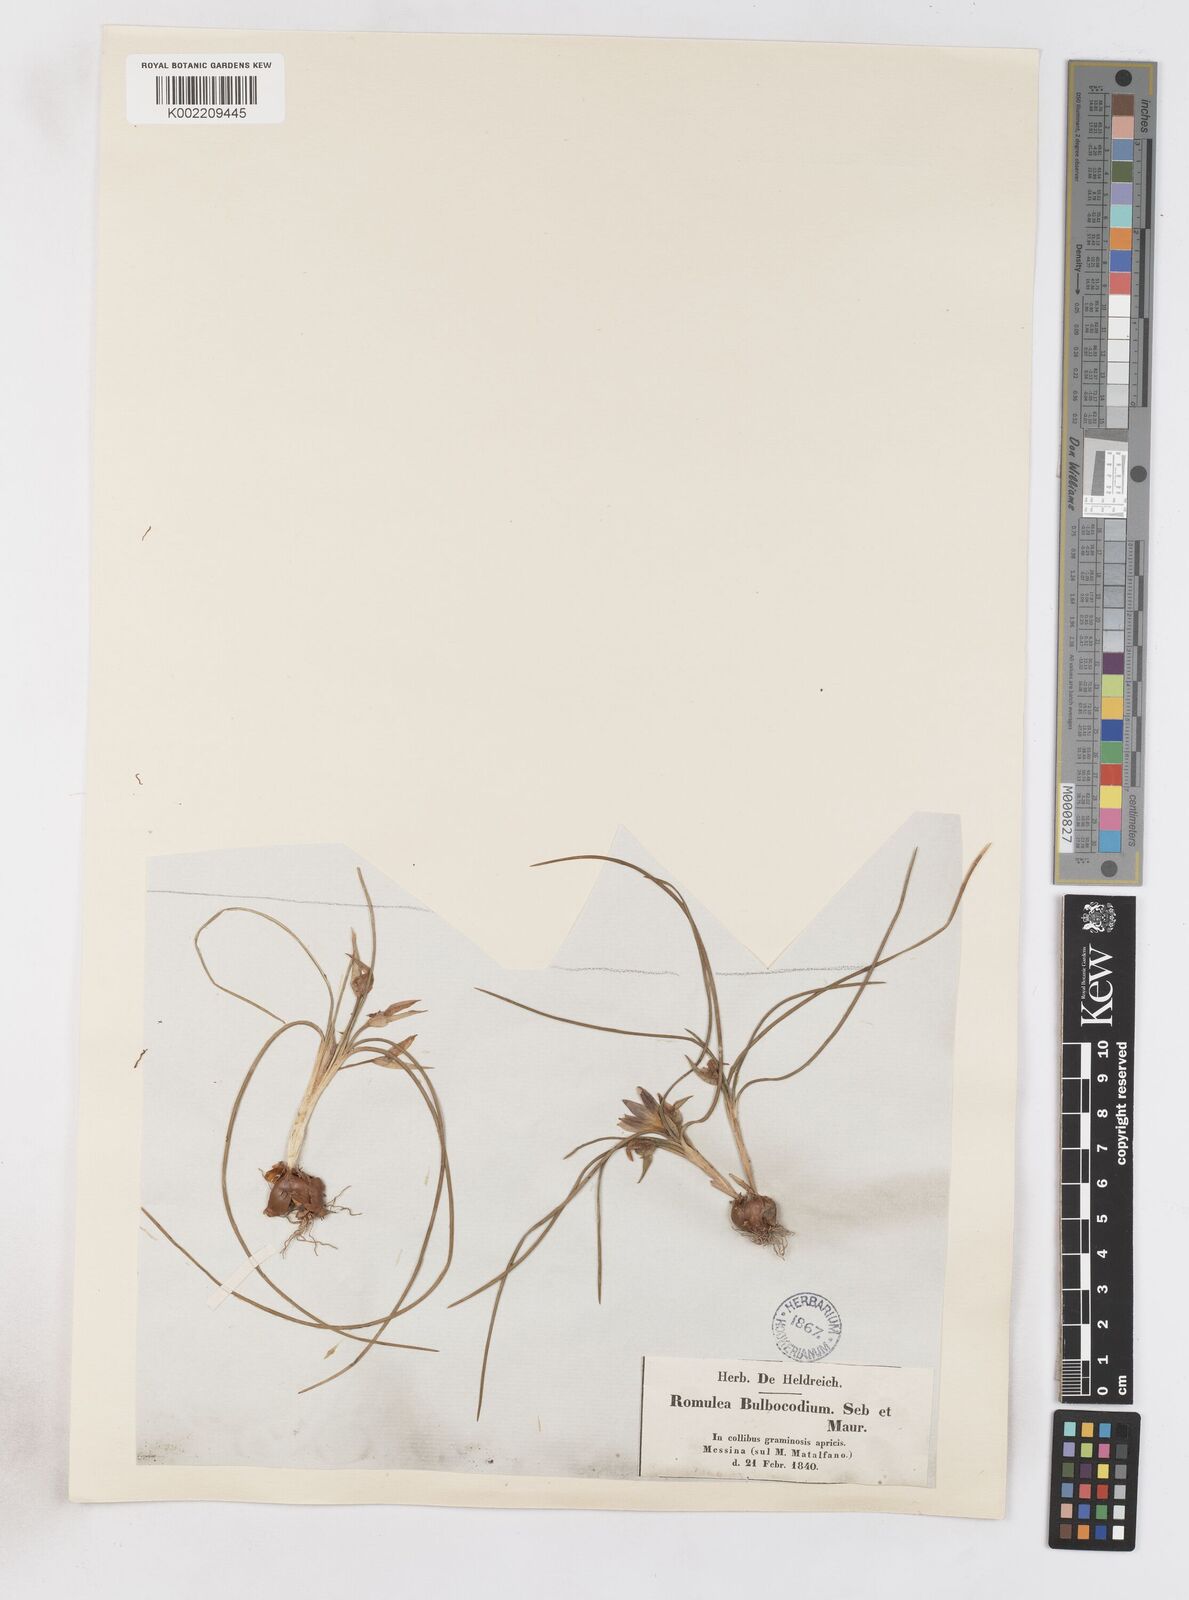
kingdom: Plantae
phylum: Tracheophyta
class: Liliopsida
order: Asparagales
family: Iridaceae
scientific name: Iridaceae
